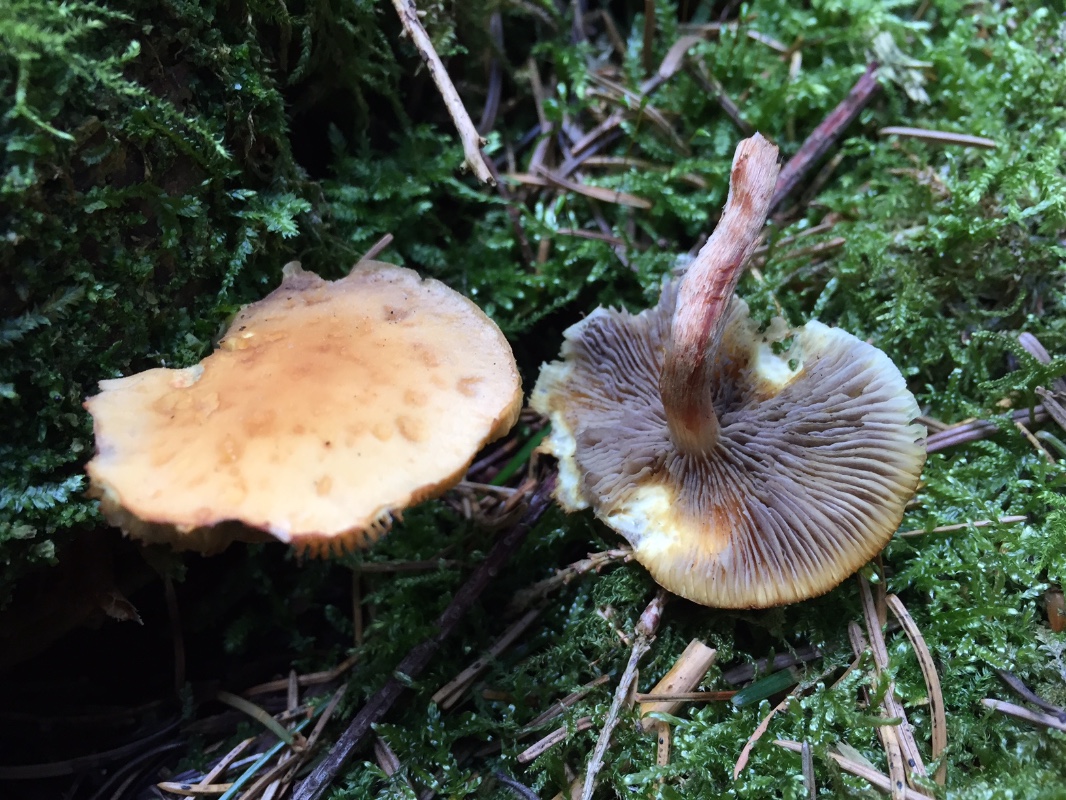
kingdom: Fungi
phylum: Basidiomycota
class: Agaricomycetes
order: Agaricales
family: Strophariaceae
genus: Hypholoma
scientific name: Hypholoma capnoides
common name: gran-svovlhat
